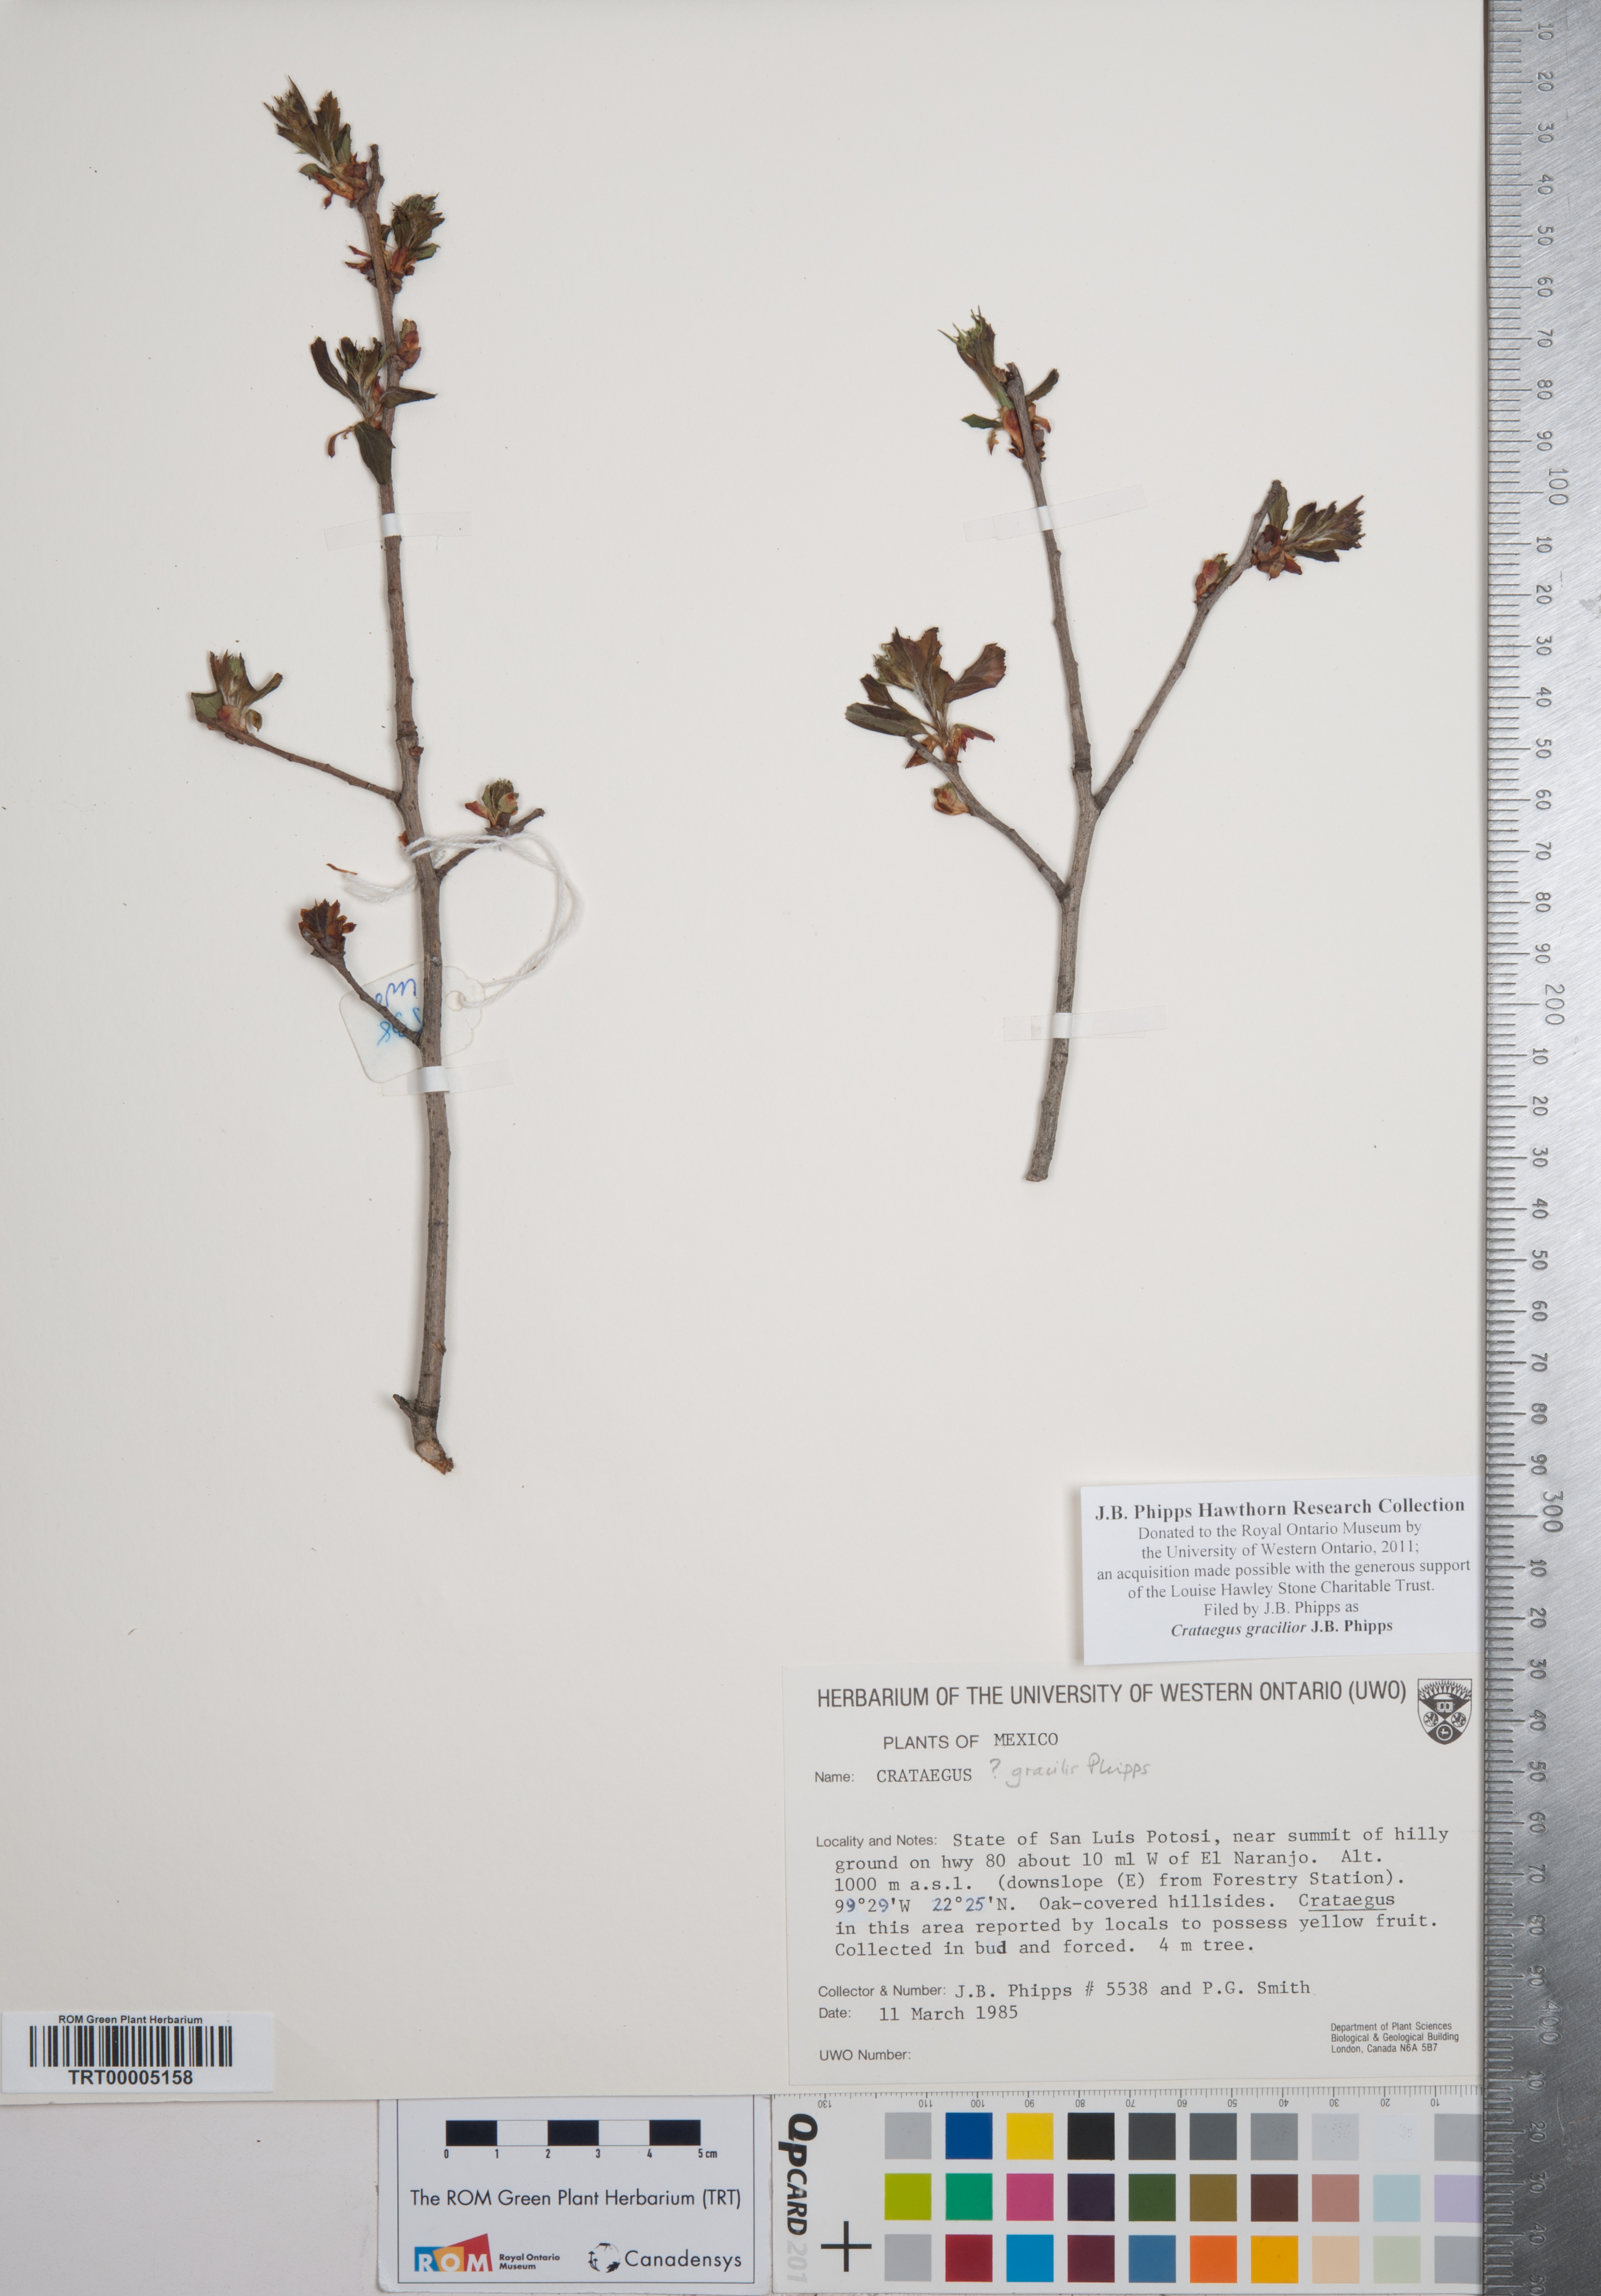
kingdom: Plantae
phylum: Tracheophyta
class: Magnoliopsida
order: Rosales
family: Rosaceae
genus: Crataegus
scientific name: Crataegus gracilior
